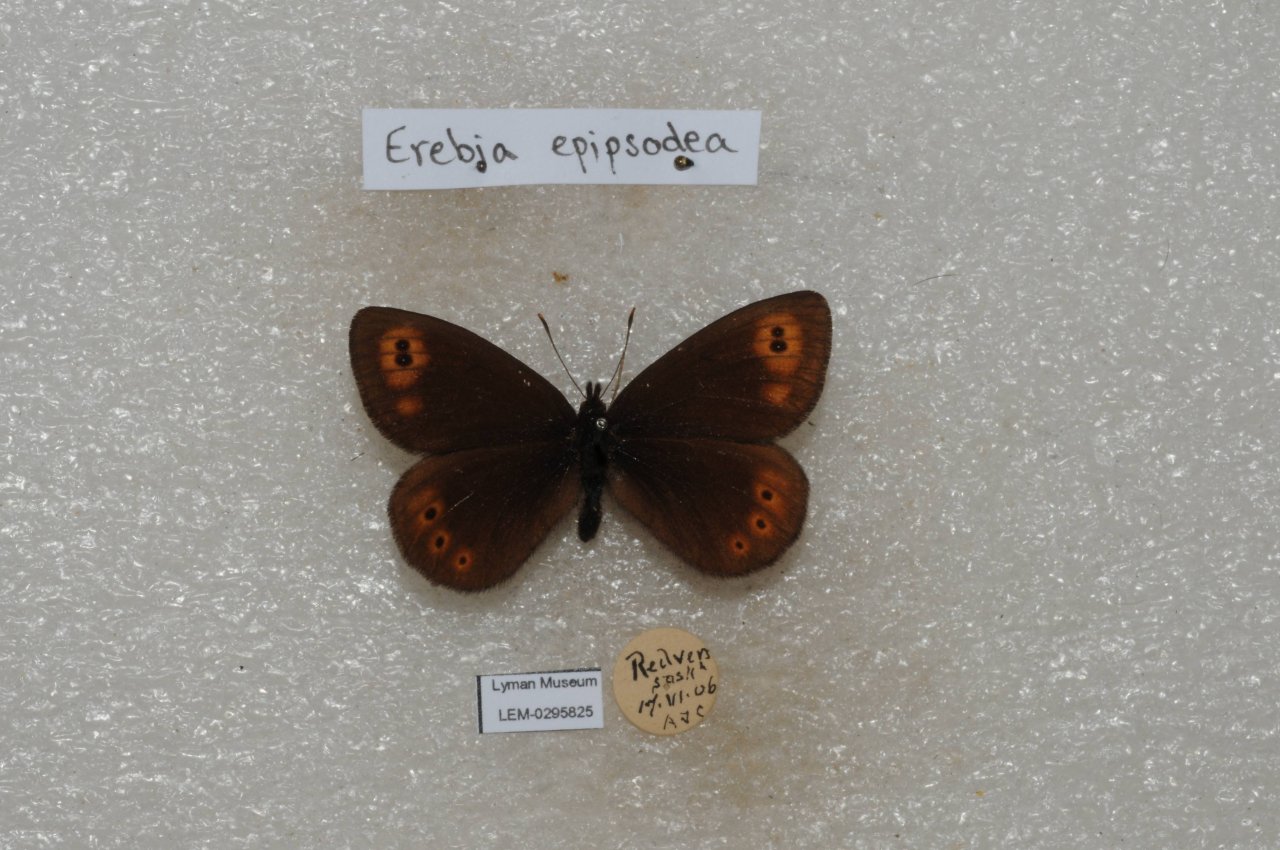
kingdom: Animalia
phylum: Arthropoda
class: Insecta
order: Lepidoptera
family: Nymphalidae
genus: Erebia
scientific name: Erebia epipsodea
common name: Common Alpine
